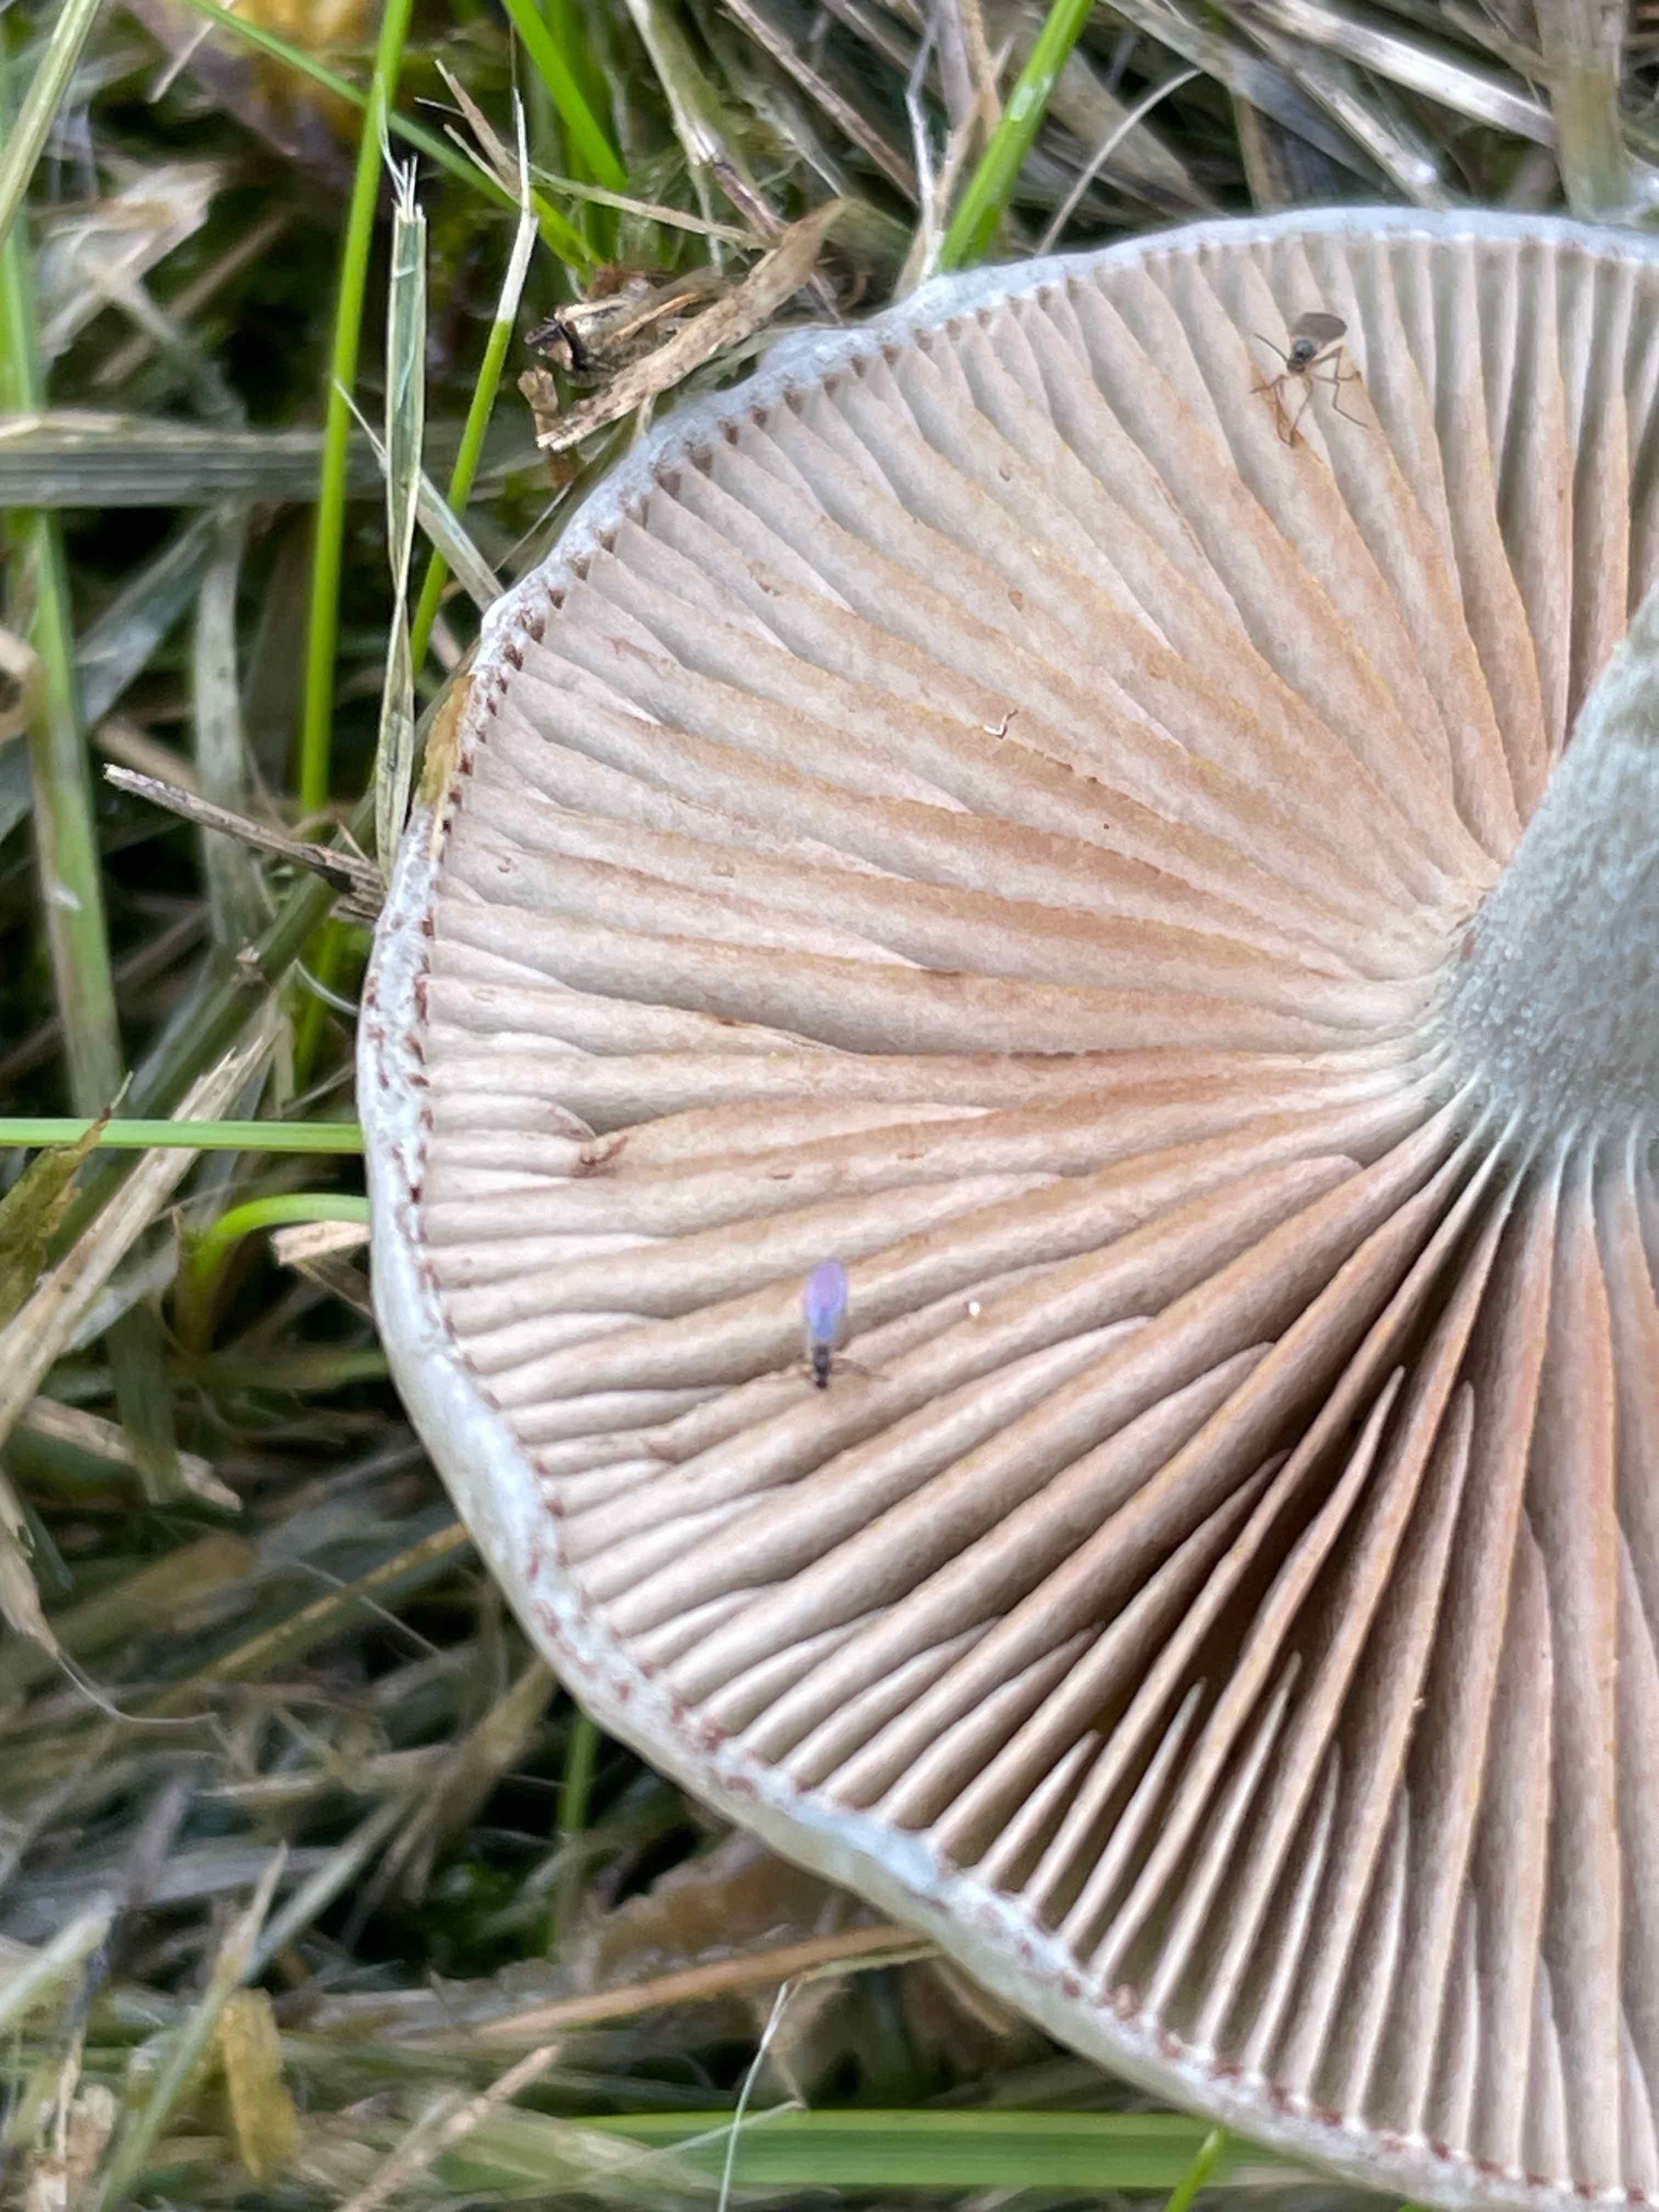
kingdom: Fungi
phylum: Basidiomycota
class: Agaricomycetes
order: Agaricales
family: Strophariaceae
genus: Stropharia
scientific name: Stropharia cyanea
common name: blågrøn bredblad
